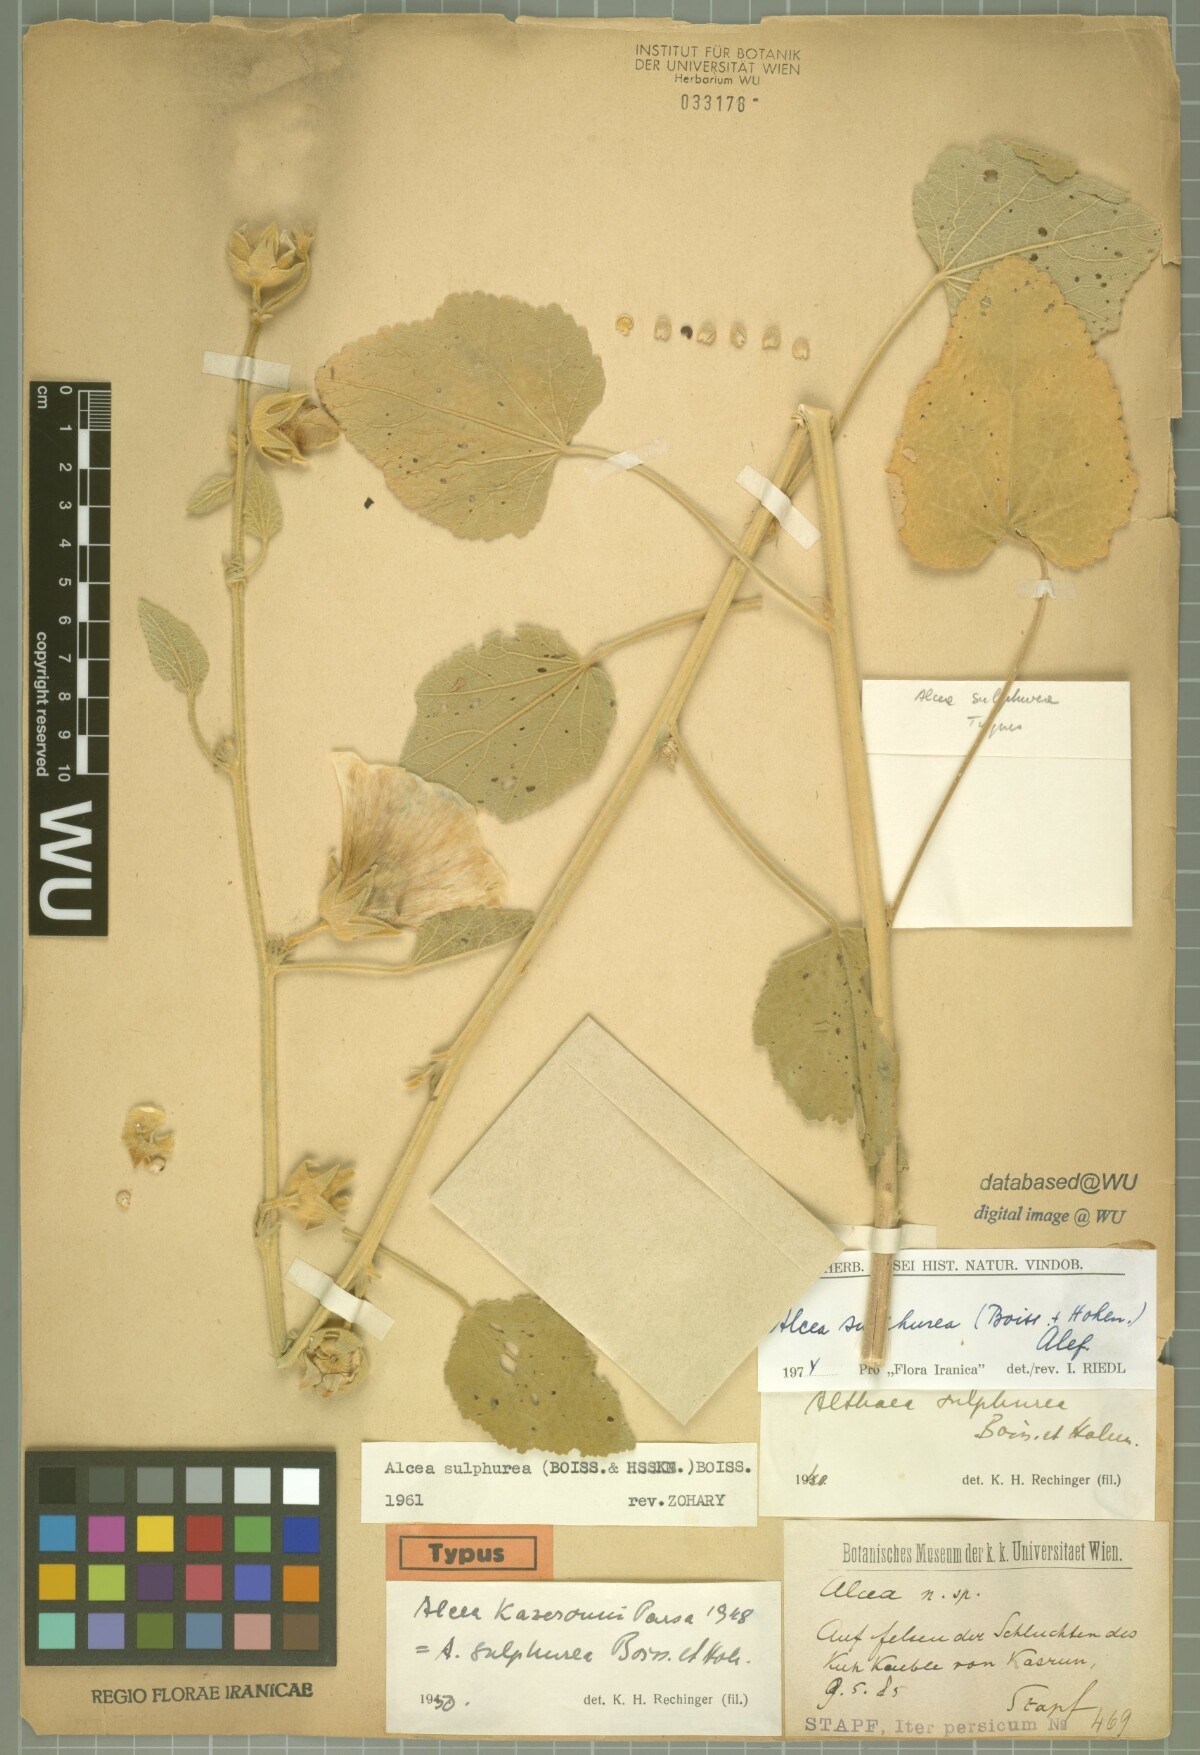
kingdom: Plantae
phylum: Tracheophyta
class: Magnoliopsida
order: Malvales
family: Malvaceae
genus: Alcea
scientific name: Alcea sulphurea
